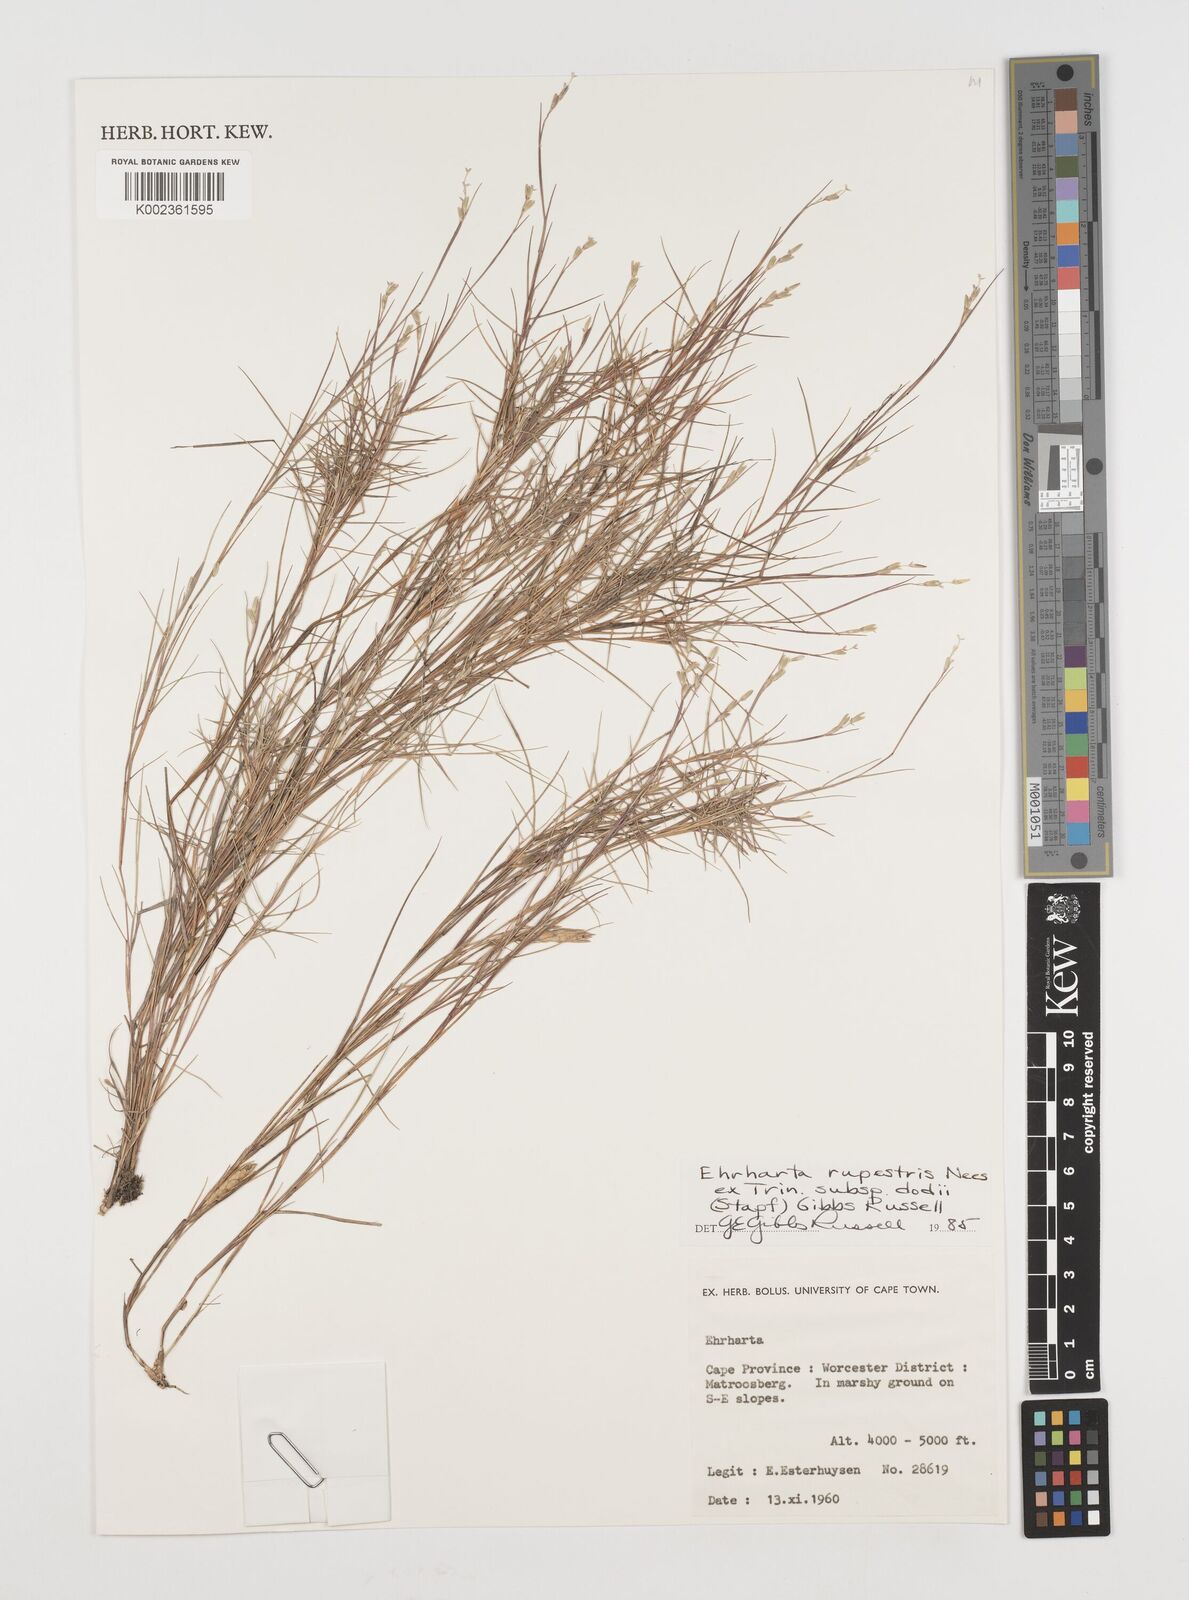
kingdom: Plantae
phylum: Tracheophyta
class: Liliopsida
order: Poales
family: Poaceae
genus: Ehrharta
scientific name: Ehrharta rupestris
